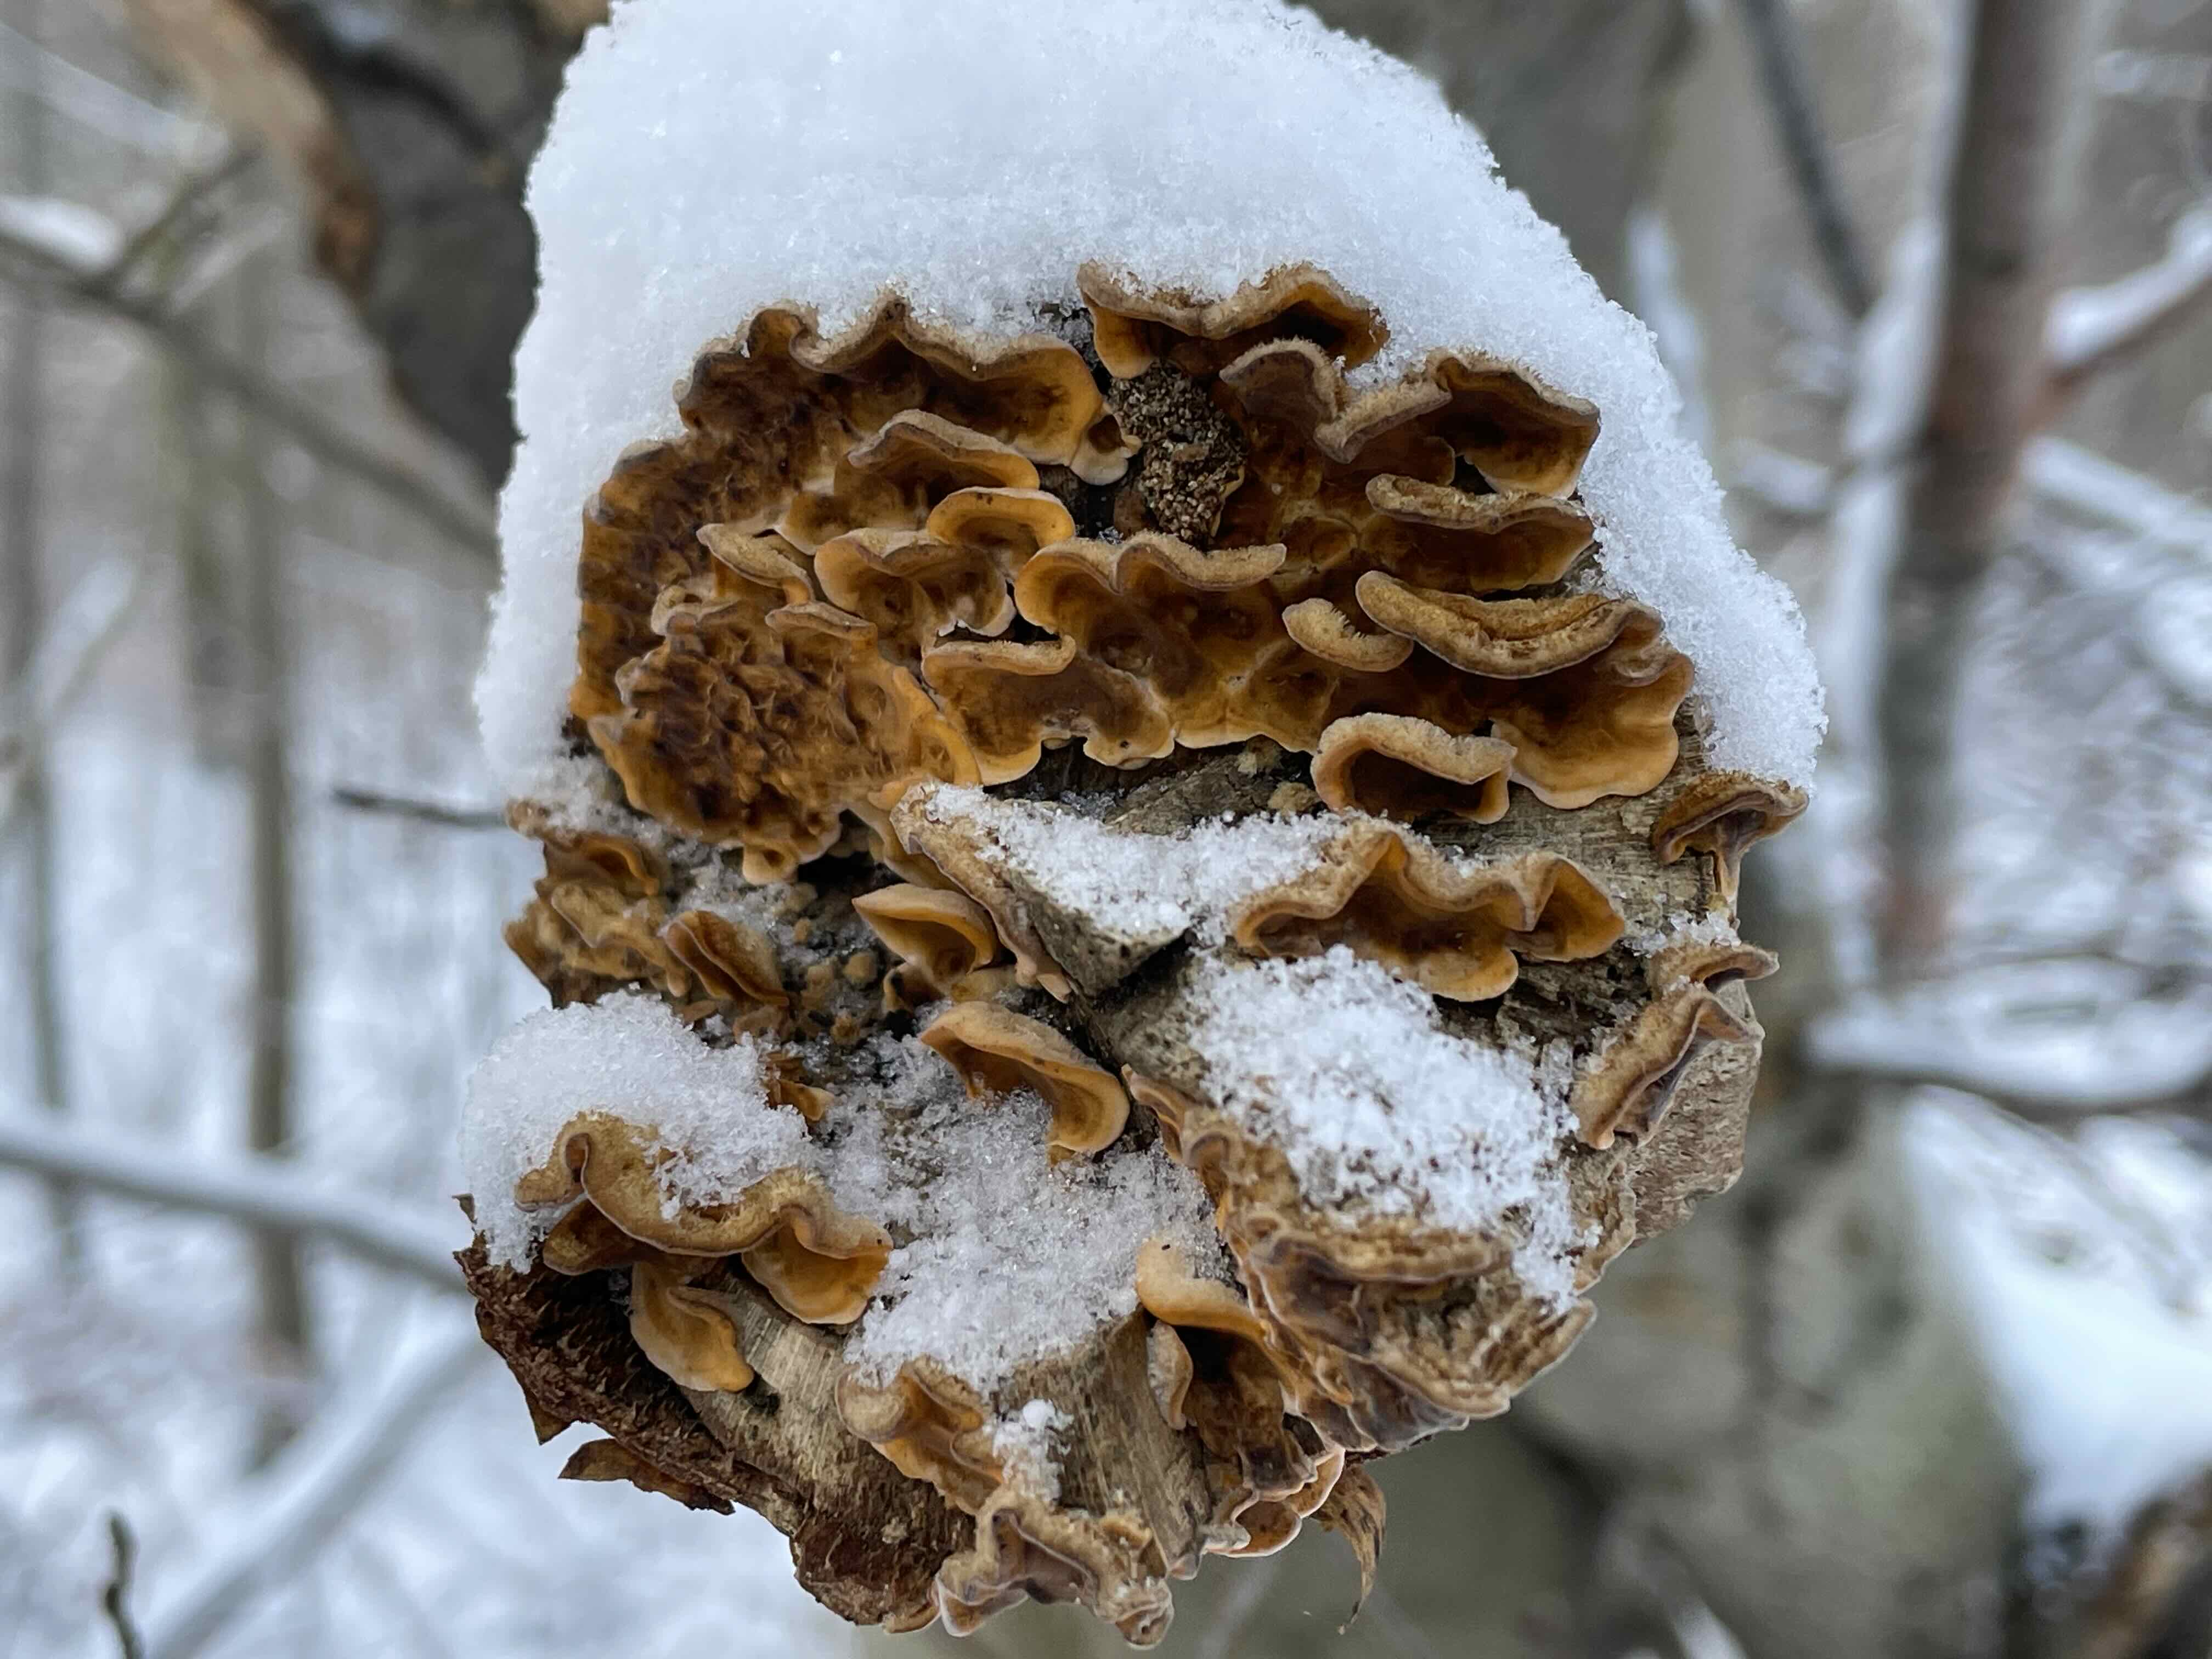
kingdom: Fungi
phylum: Basidiomycota
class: Agaricomycetes
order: Russulales
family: Stereaceae
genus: Stereum
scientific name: Stereum hirsutum
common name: håret lædersvamp
